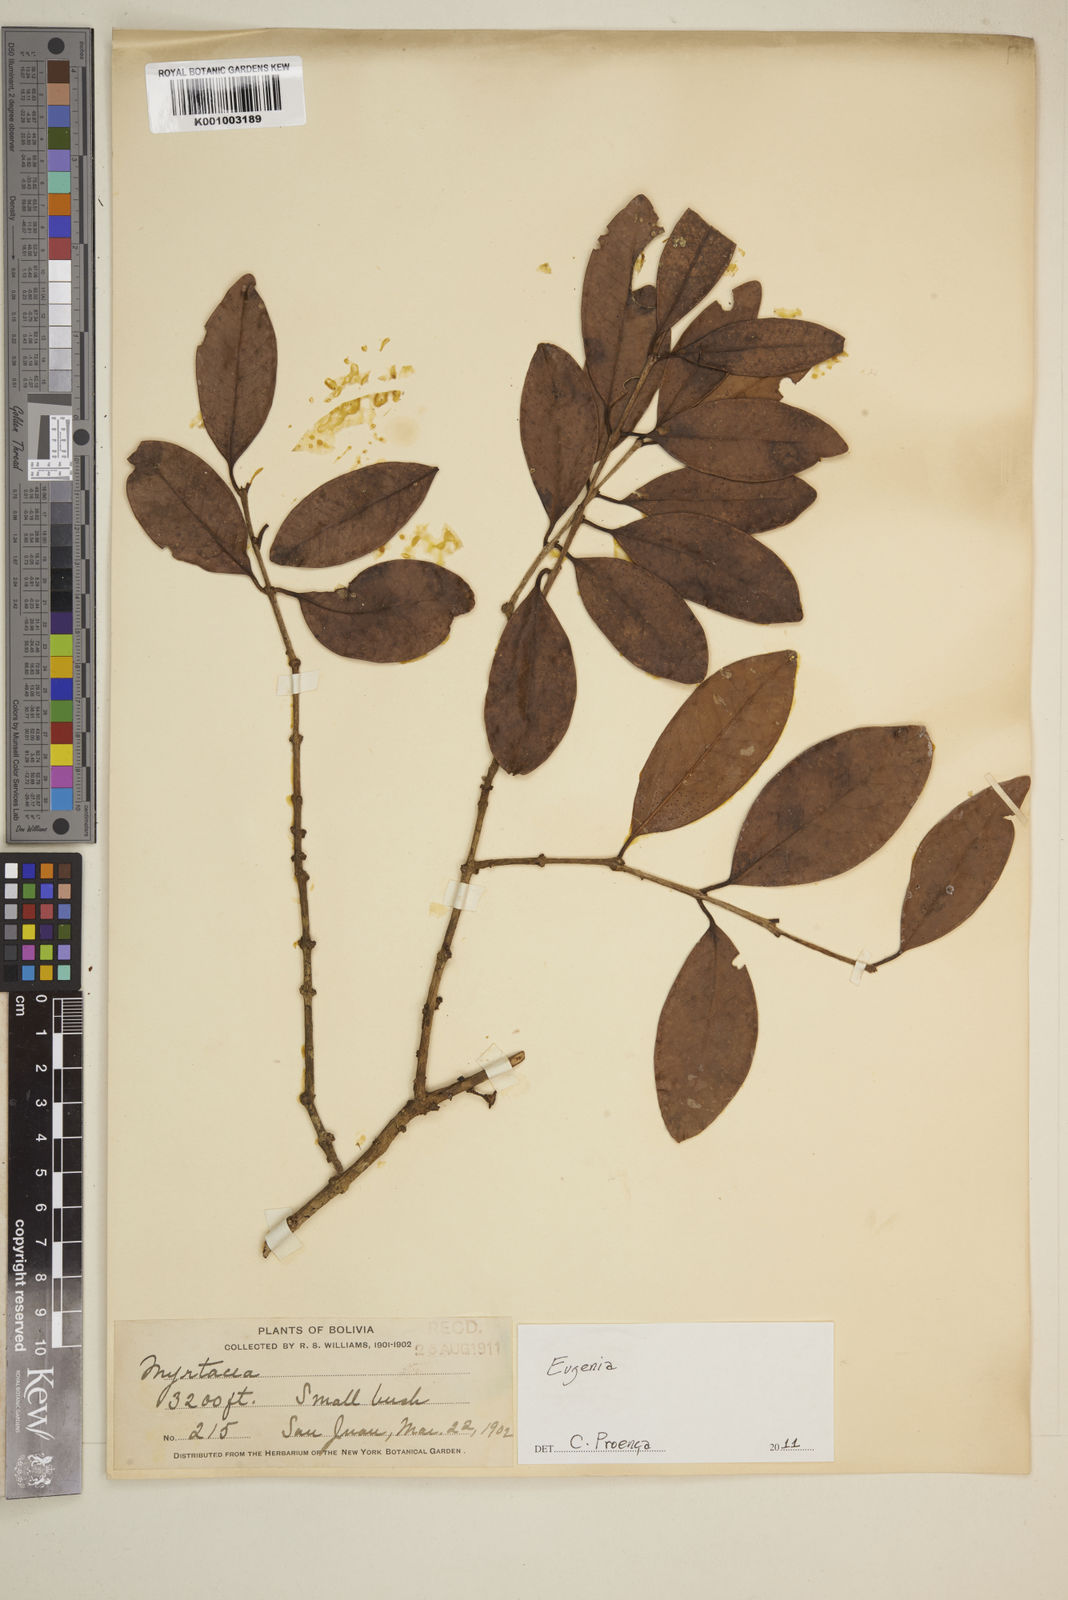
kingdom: Plantae
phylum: Tracheophyta
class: Magnoliopsida
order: Myrtales
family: Myrtaceae
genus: Eugenia
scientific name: Eugenia
